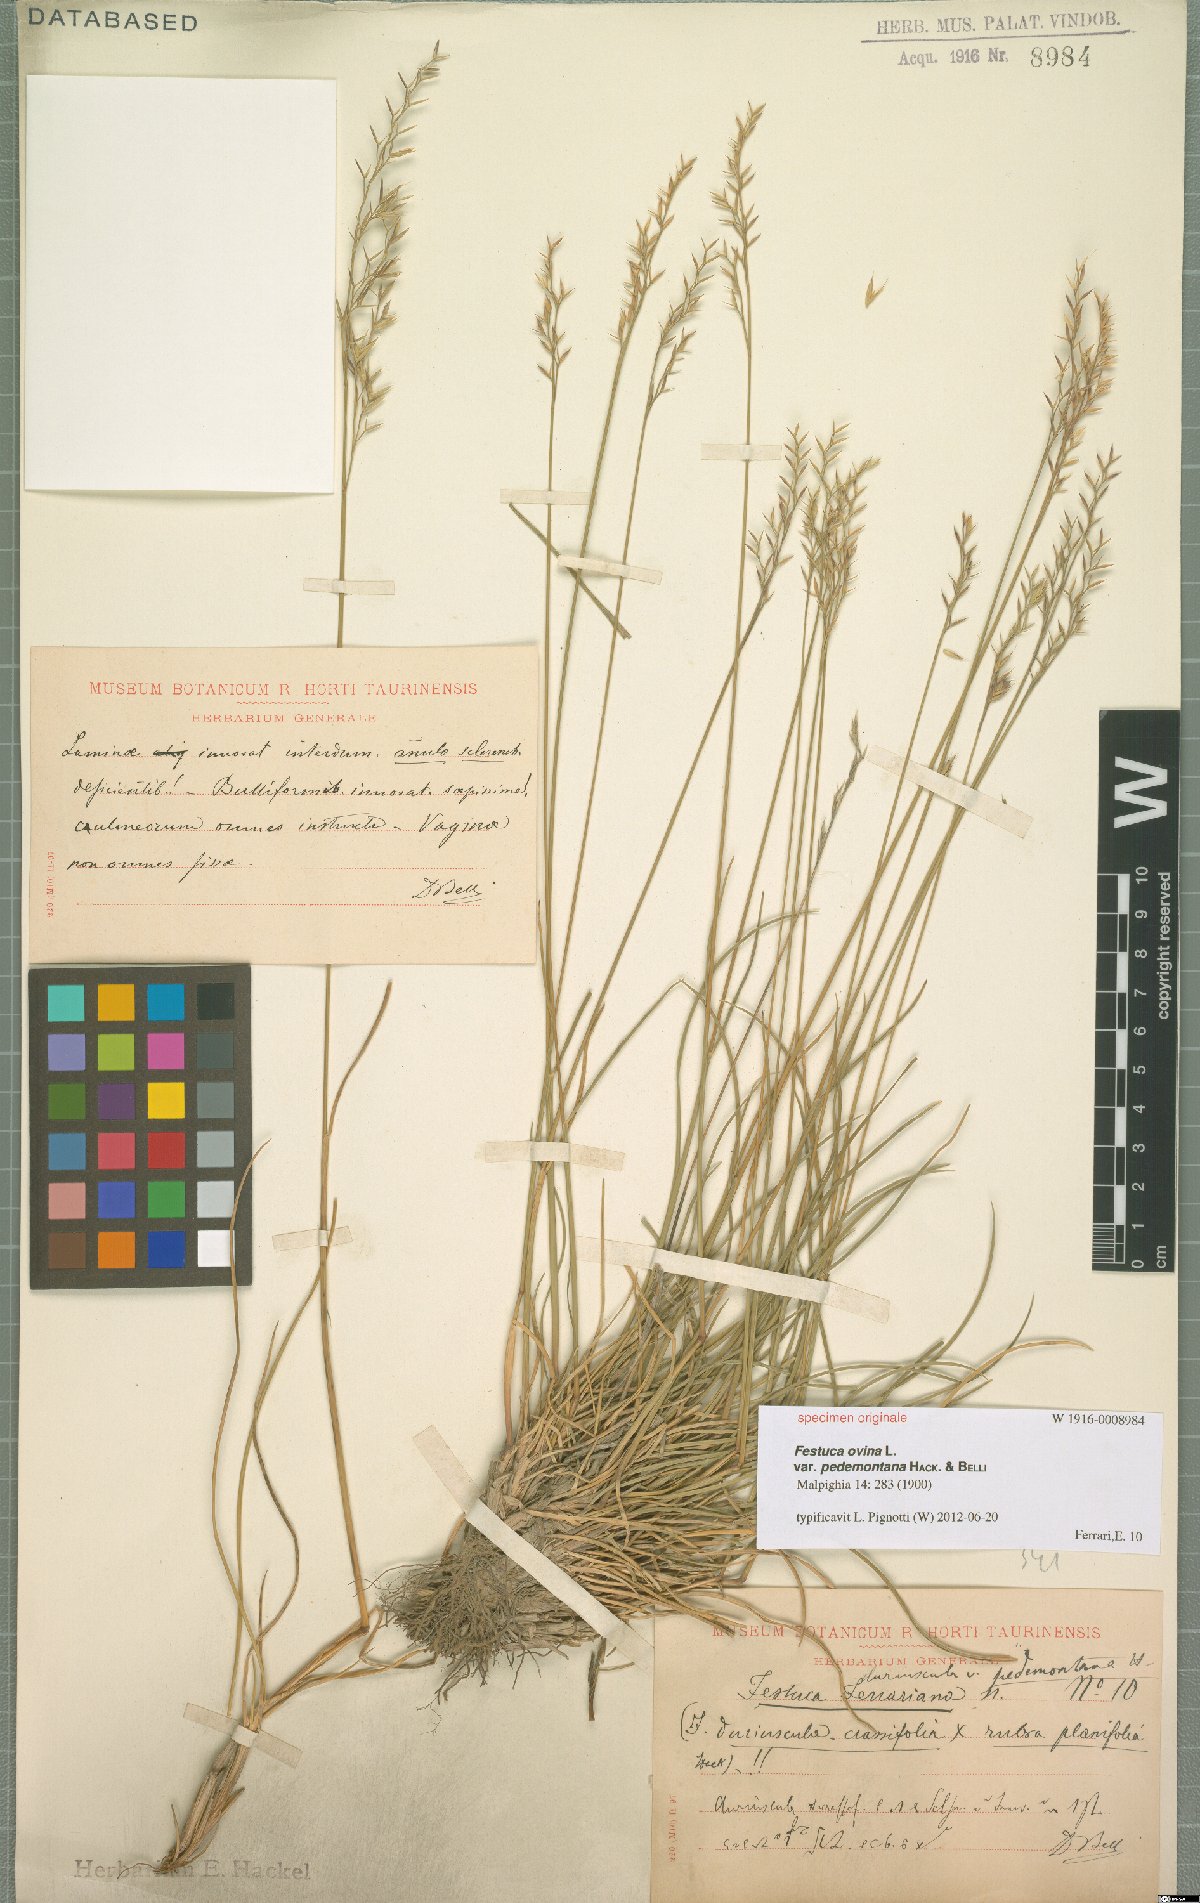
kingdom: Plantae
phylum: Tracheophyta
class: Liliopsida
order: Poales
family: Poaceae
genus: Festuca
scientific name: Festuca ovina
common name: Sheep fescue
